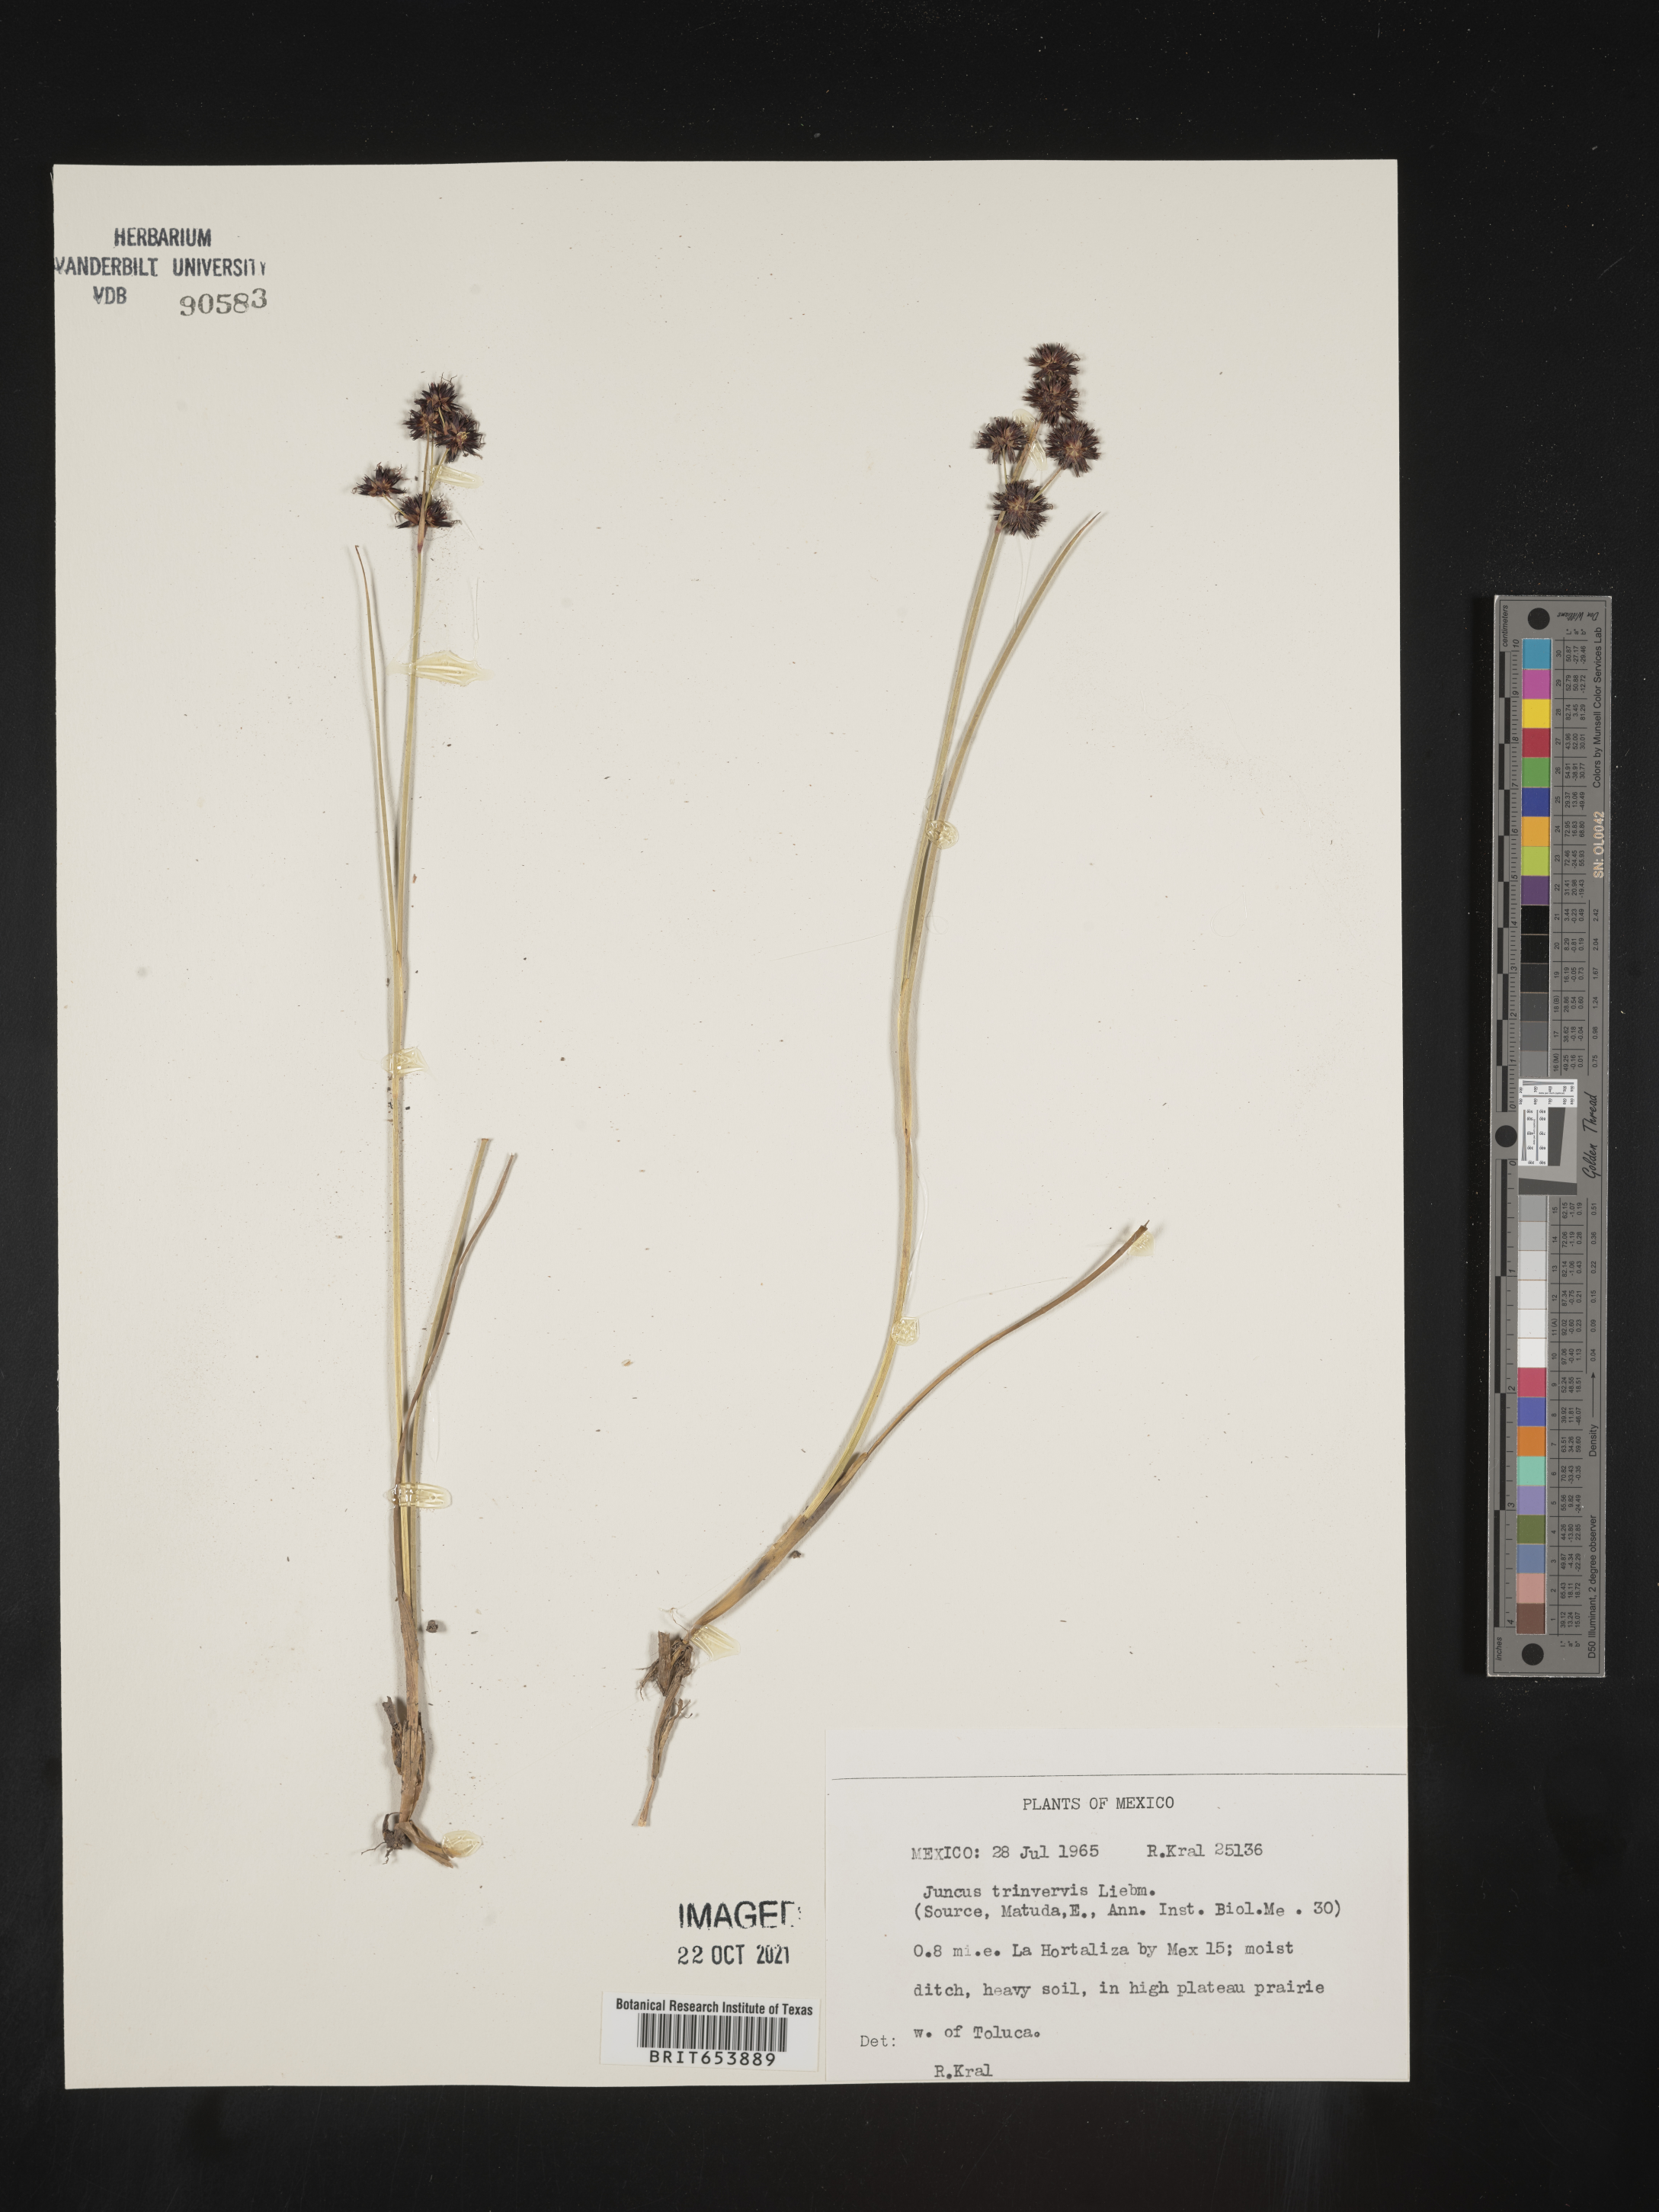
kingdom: Plantae
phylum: Tracheophyta
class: Liliopsida
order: Poales
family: Juncaceae
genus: Juncus
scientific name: Juncus
